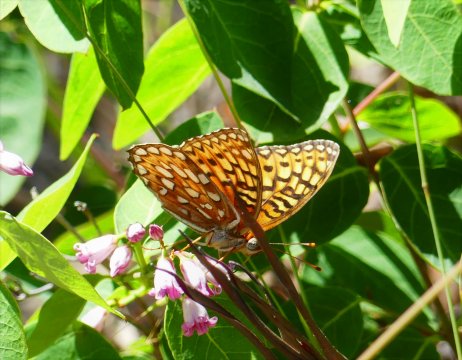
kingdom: Animalia
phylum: Arthropoda
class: Insecta
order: Lepidoptera
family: Nymphalidae
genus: Speyeria
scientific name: Speyeria
